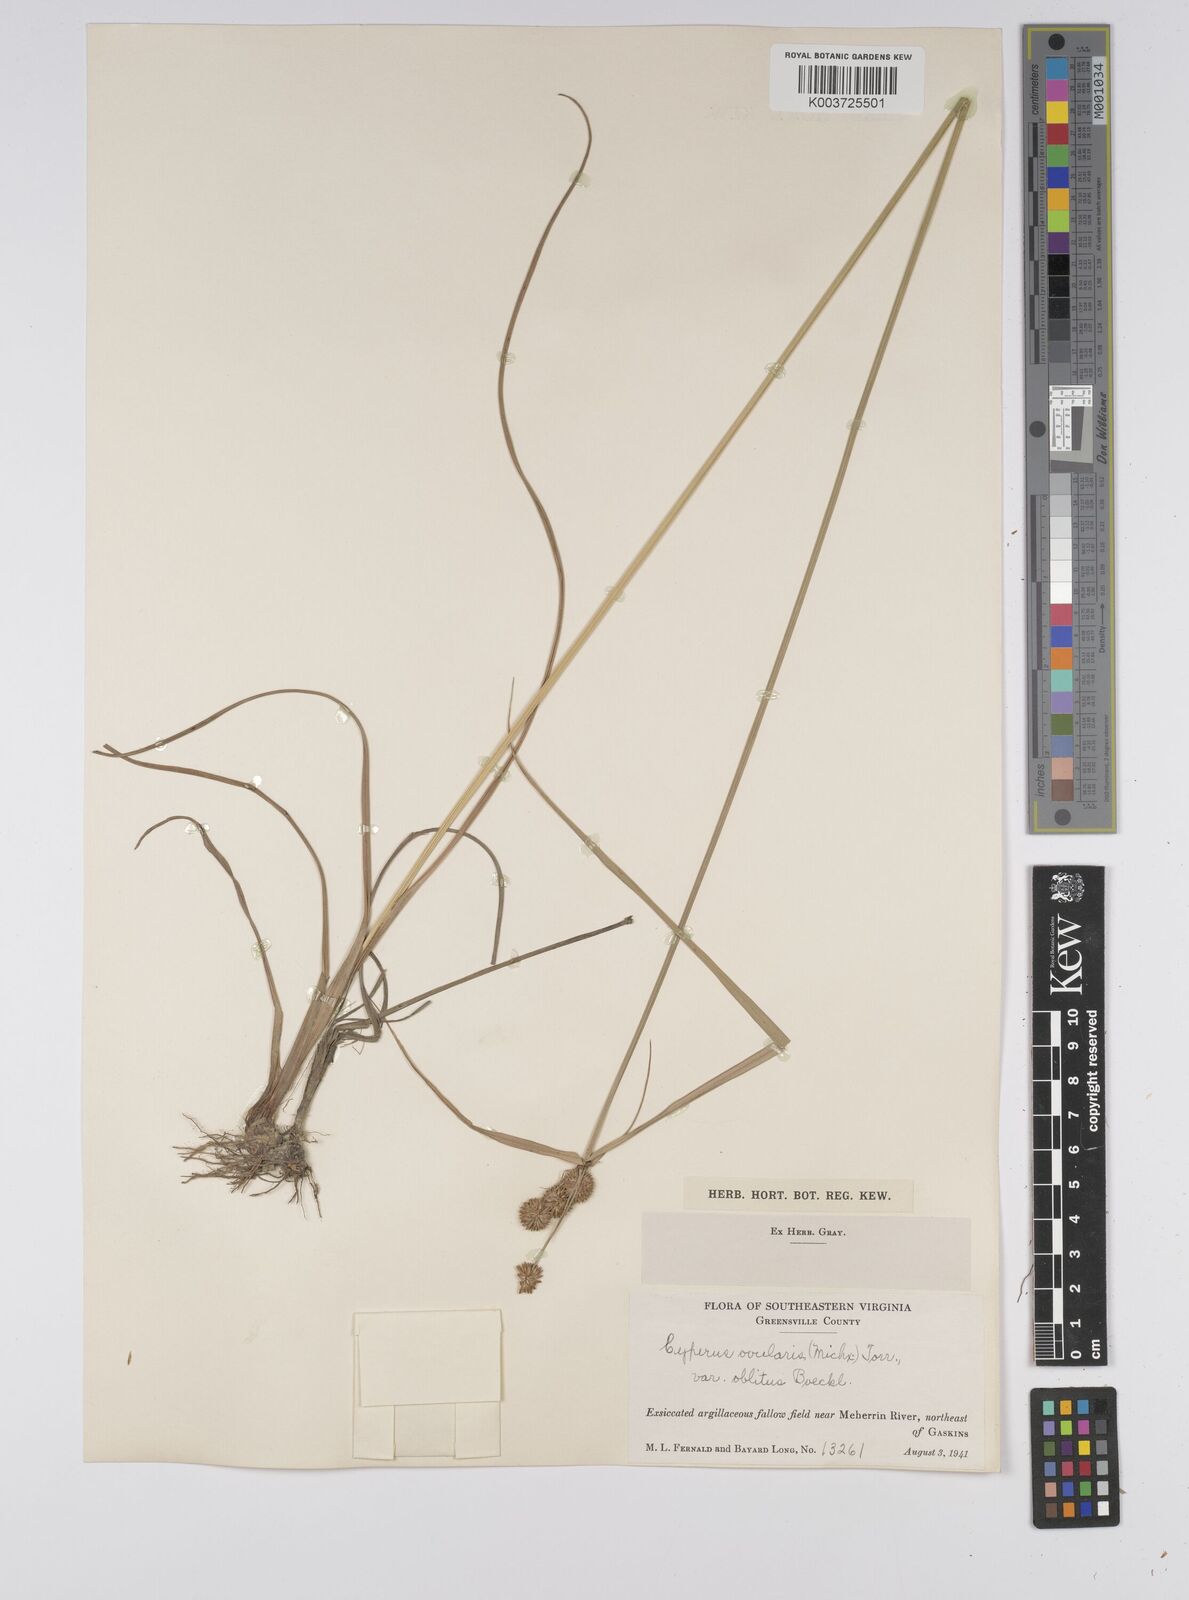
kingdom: Plantae
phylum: Tracheophyta
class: Liliopsida
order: Poales
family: Cyperaceae
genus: Cyperus
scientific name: Cyperus echinatus
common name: Teasel sedge
